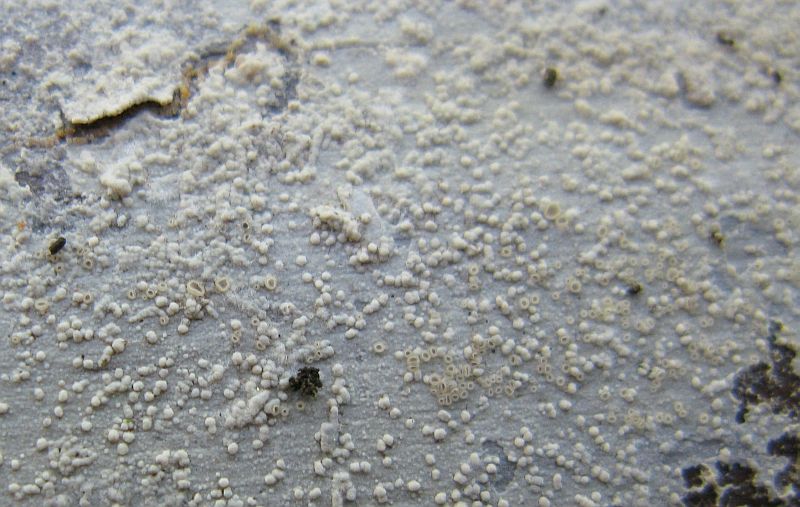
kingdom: Fungi
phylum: Basidiomycota
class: Agaricomycetes
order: Hymenochaetales
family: Hyphodontiaceae
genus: Hyphodontia
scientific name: Hyphodontia pallidula
